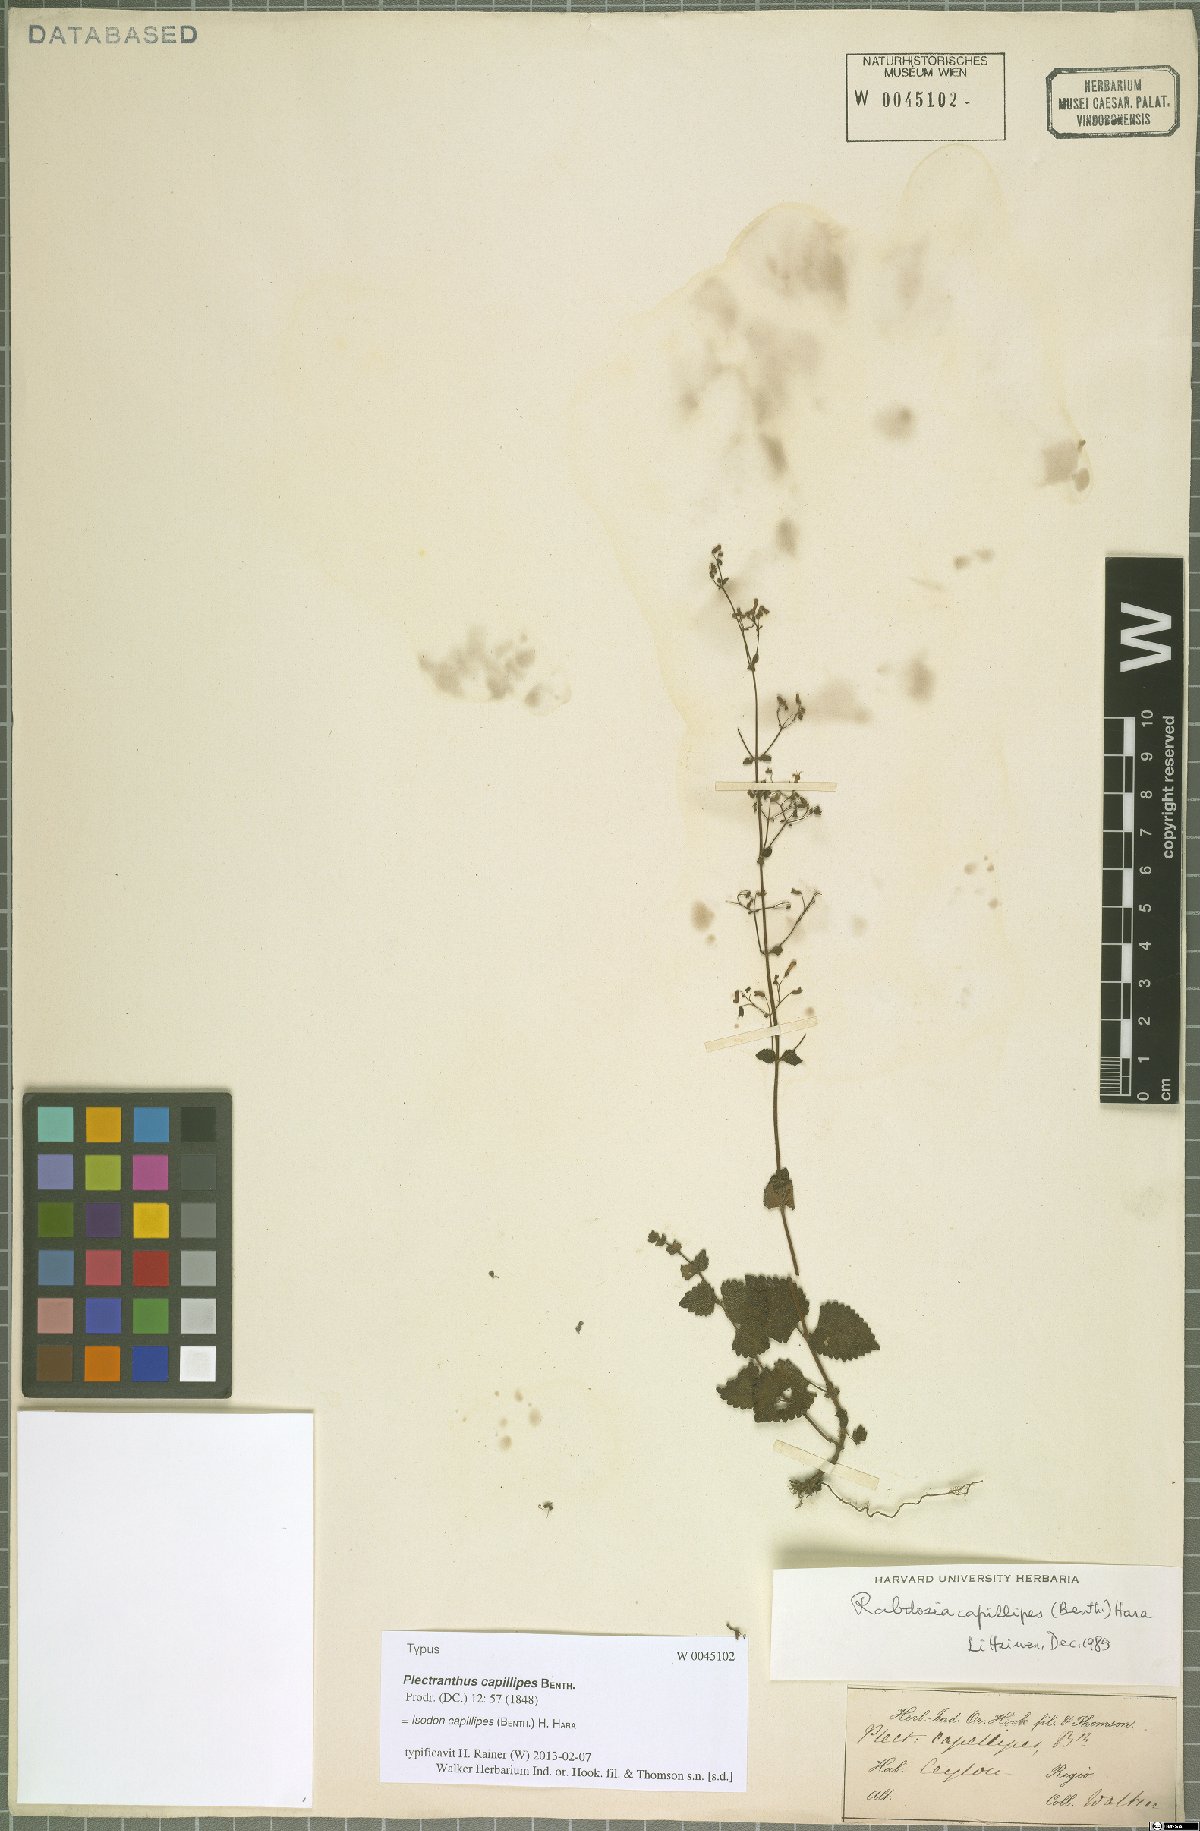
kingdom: Plantae
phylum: Tracheophyta
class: Magnoliopsida
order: Lamiales
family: Lamiaceae
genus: Isodon
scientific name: Isodon capillipes
